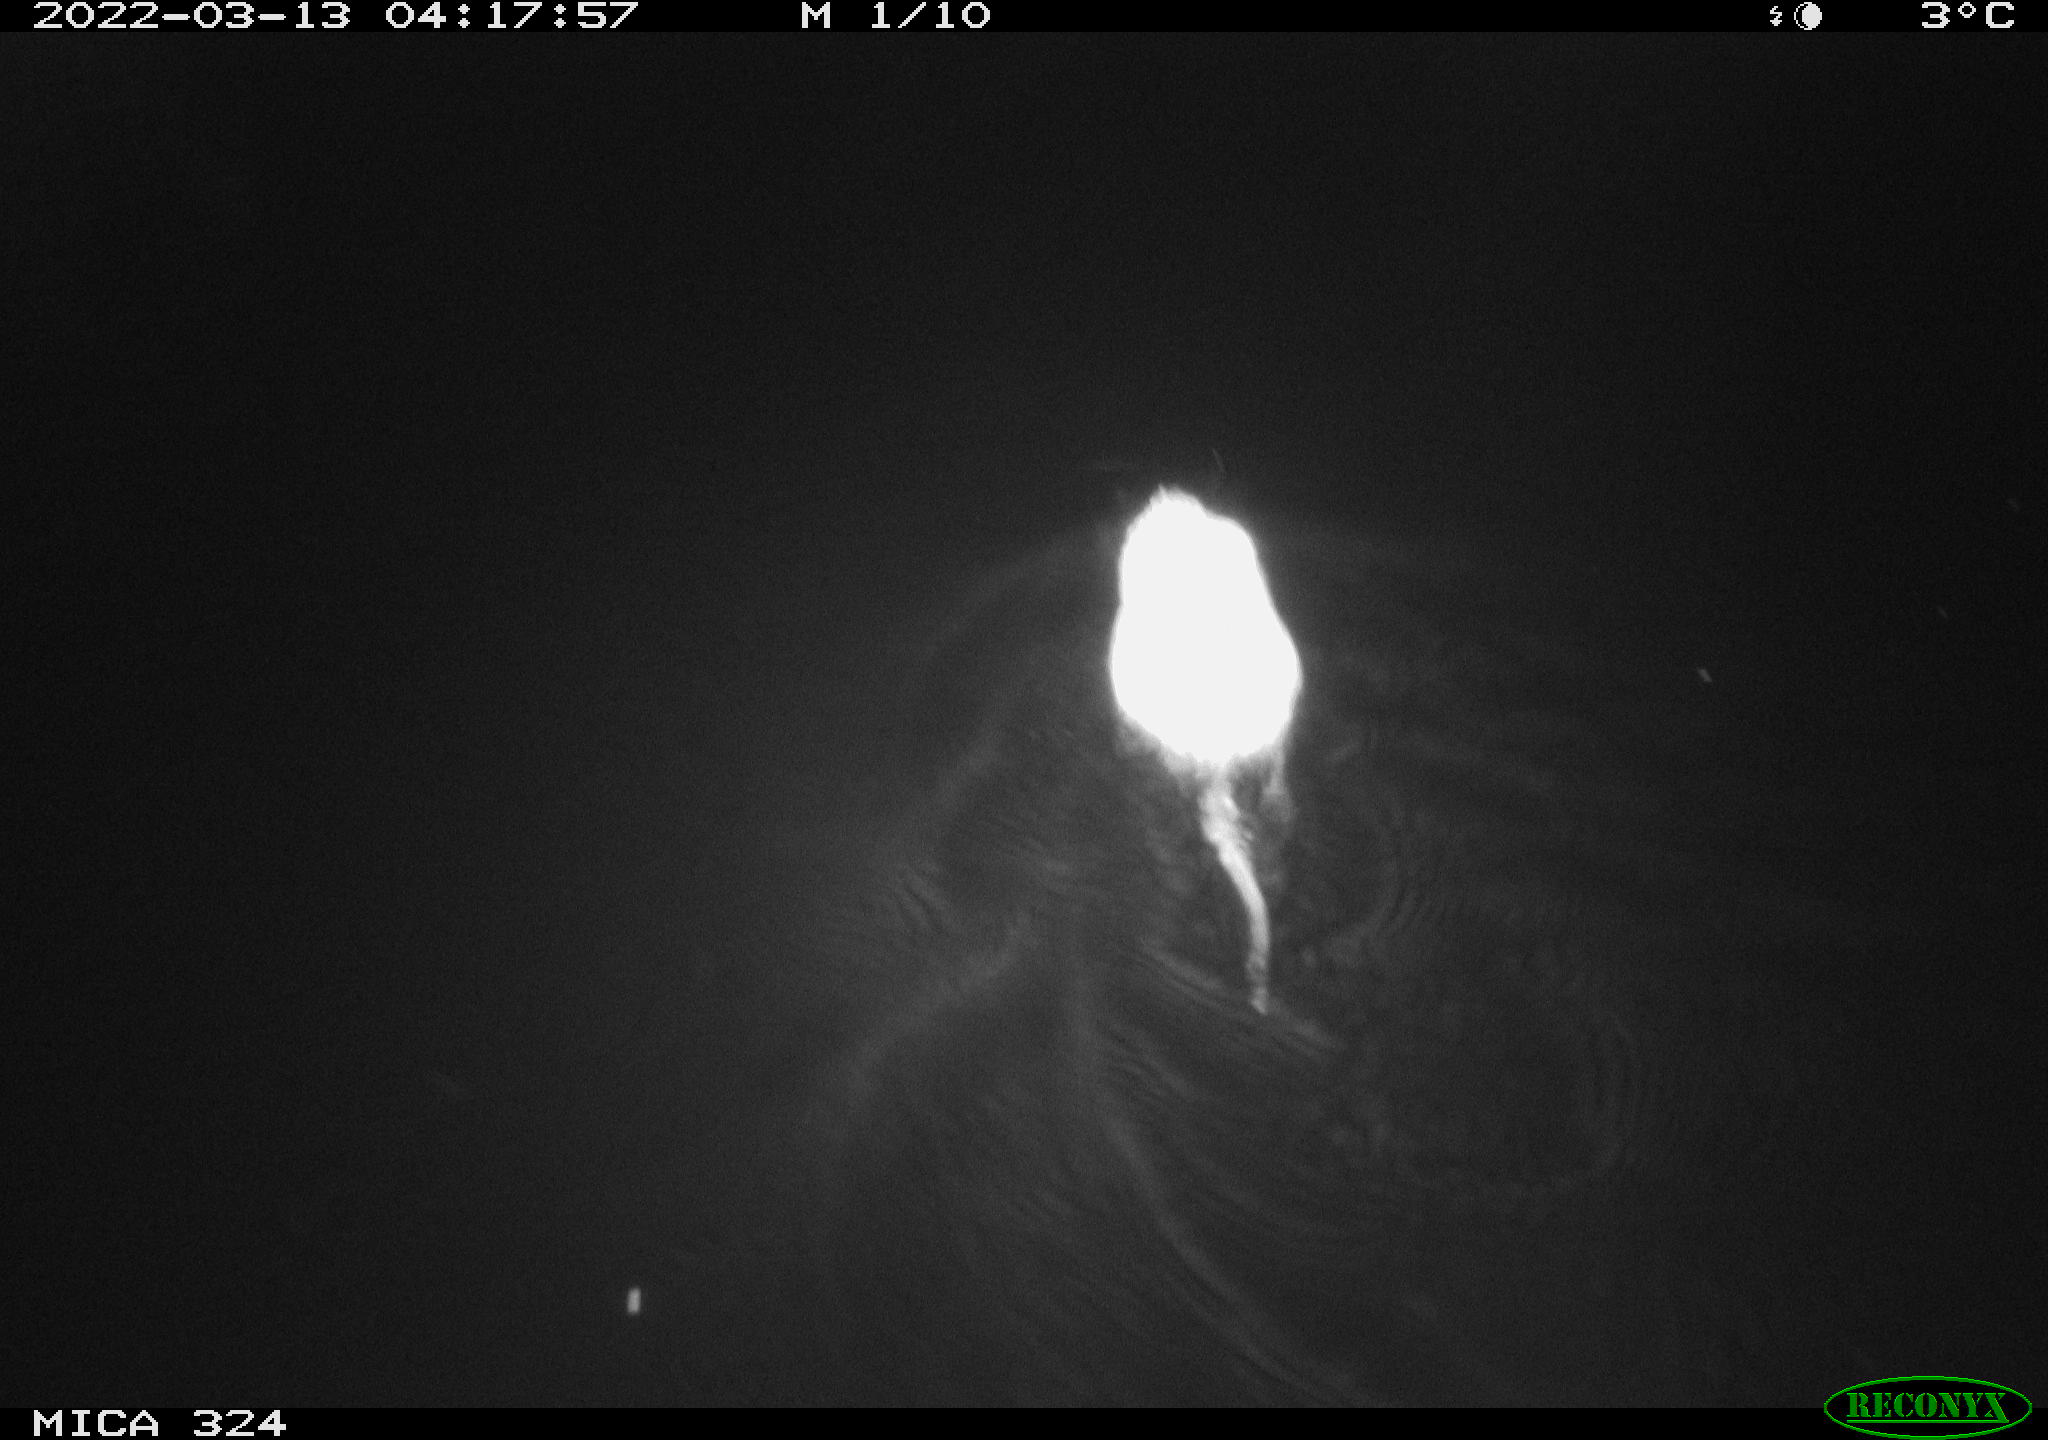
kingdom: Animalia
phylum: Chordata
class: Mammalia
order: Rodentia
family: Cricetidae
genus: Ondatra
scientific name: Ondatra zibethicus
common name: Muskrat
